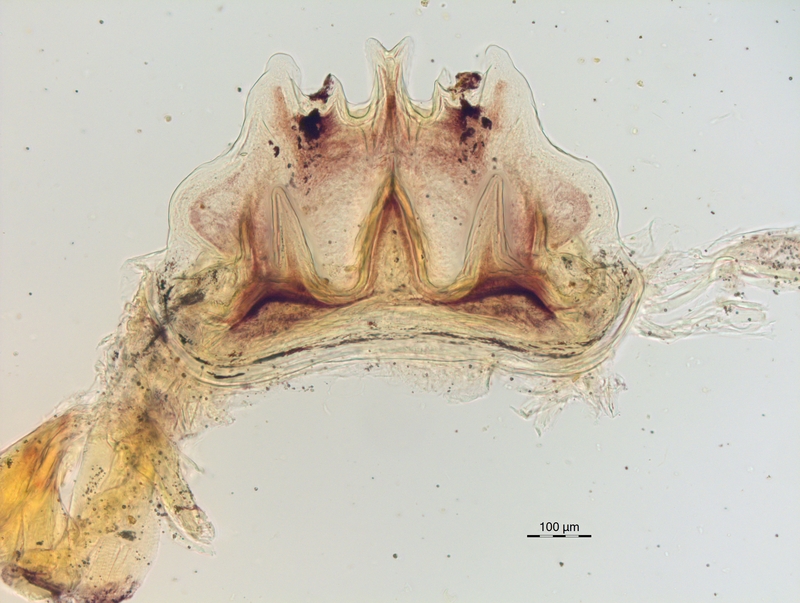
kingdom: Animalia
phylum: Arthropoda
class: Diplopoda
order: Chordeumatida
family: Craspedosomatidae
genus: Craspedosoma
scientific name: Craspedosoma alemannicum
